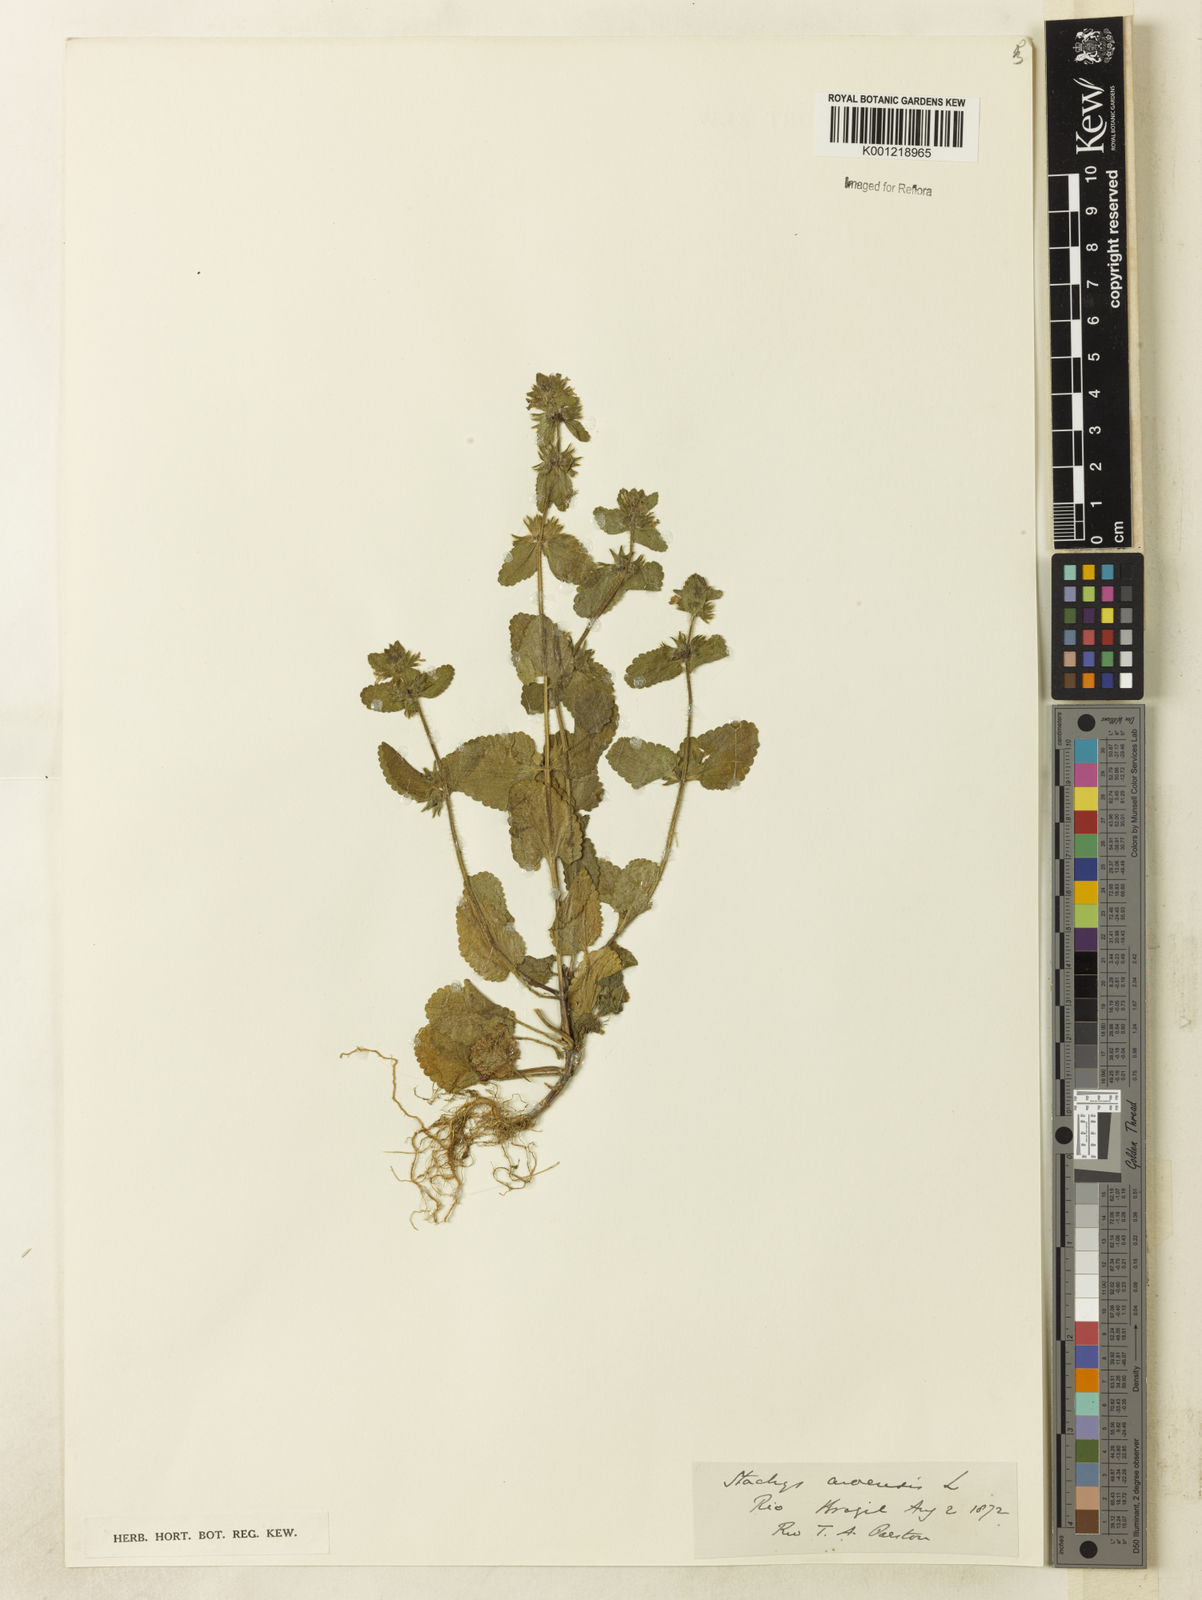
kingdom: Plantae
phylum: Tracheophyta
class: Magnoliopsida
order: Lamiales
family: Lamiaceae
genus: Stachys
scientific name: Stachys arvensis
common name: Field woundwort
